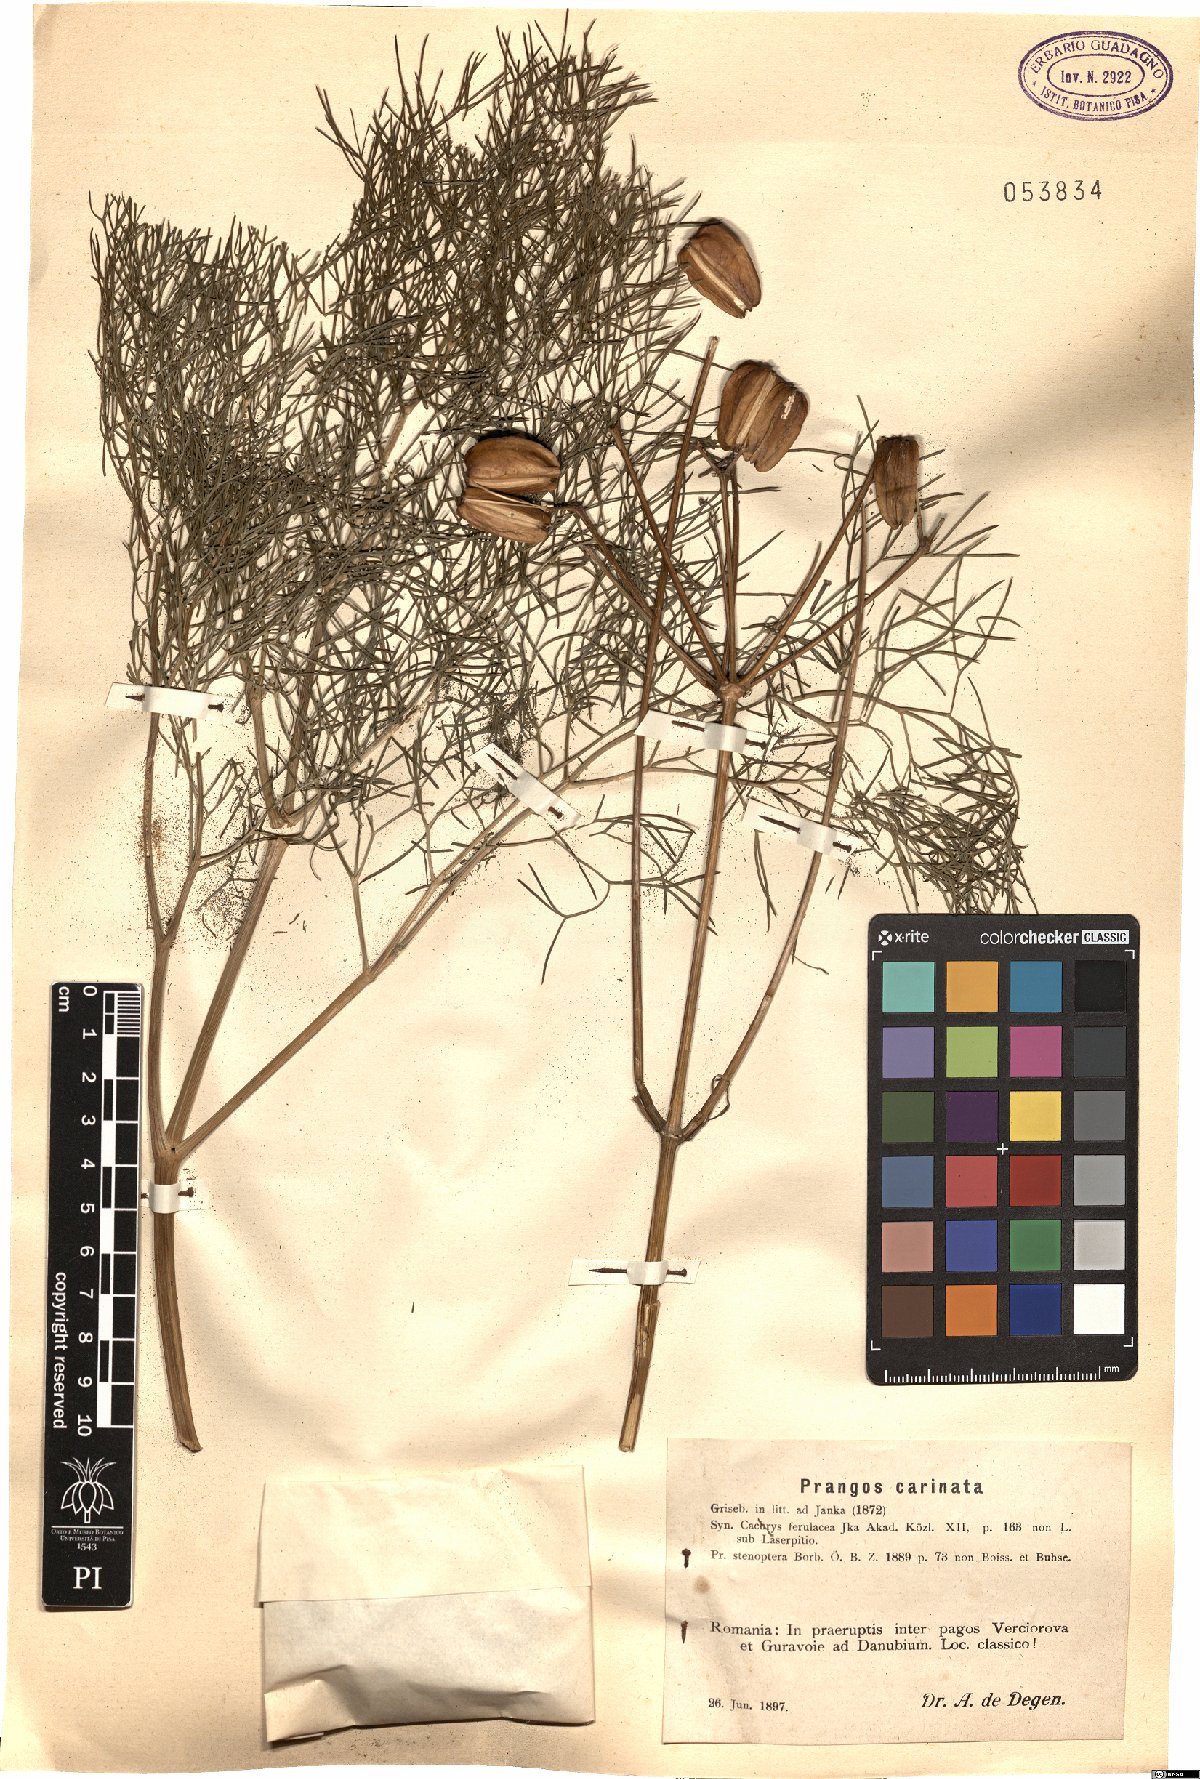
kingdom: Plantae
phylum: Tracheophyta
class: Magnoliopsida
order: Apiales
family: Apiaceae
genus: Prangos
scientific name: Prangos ferulacea
